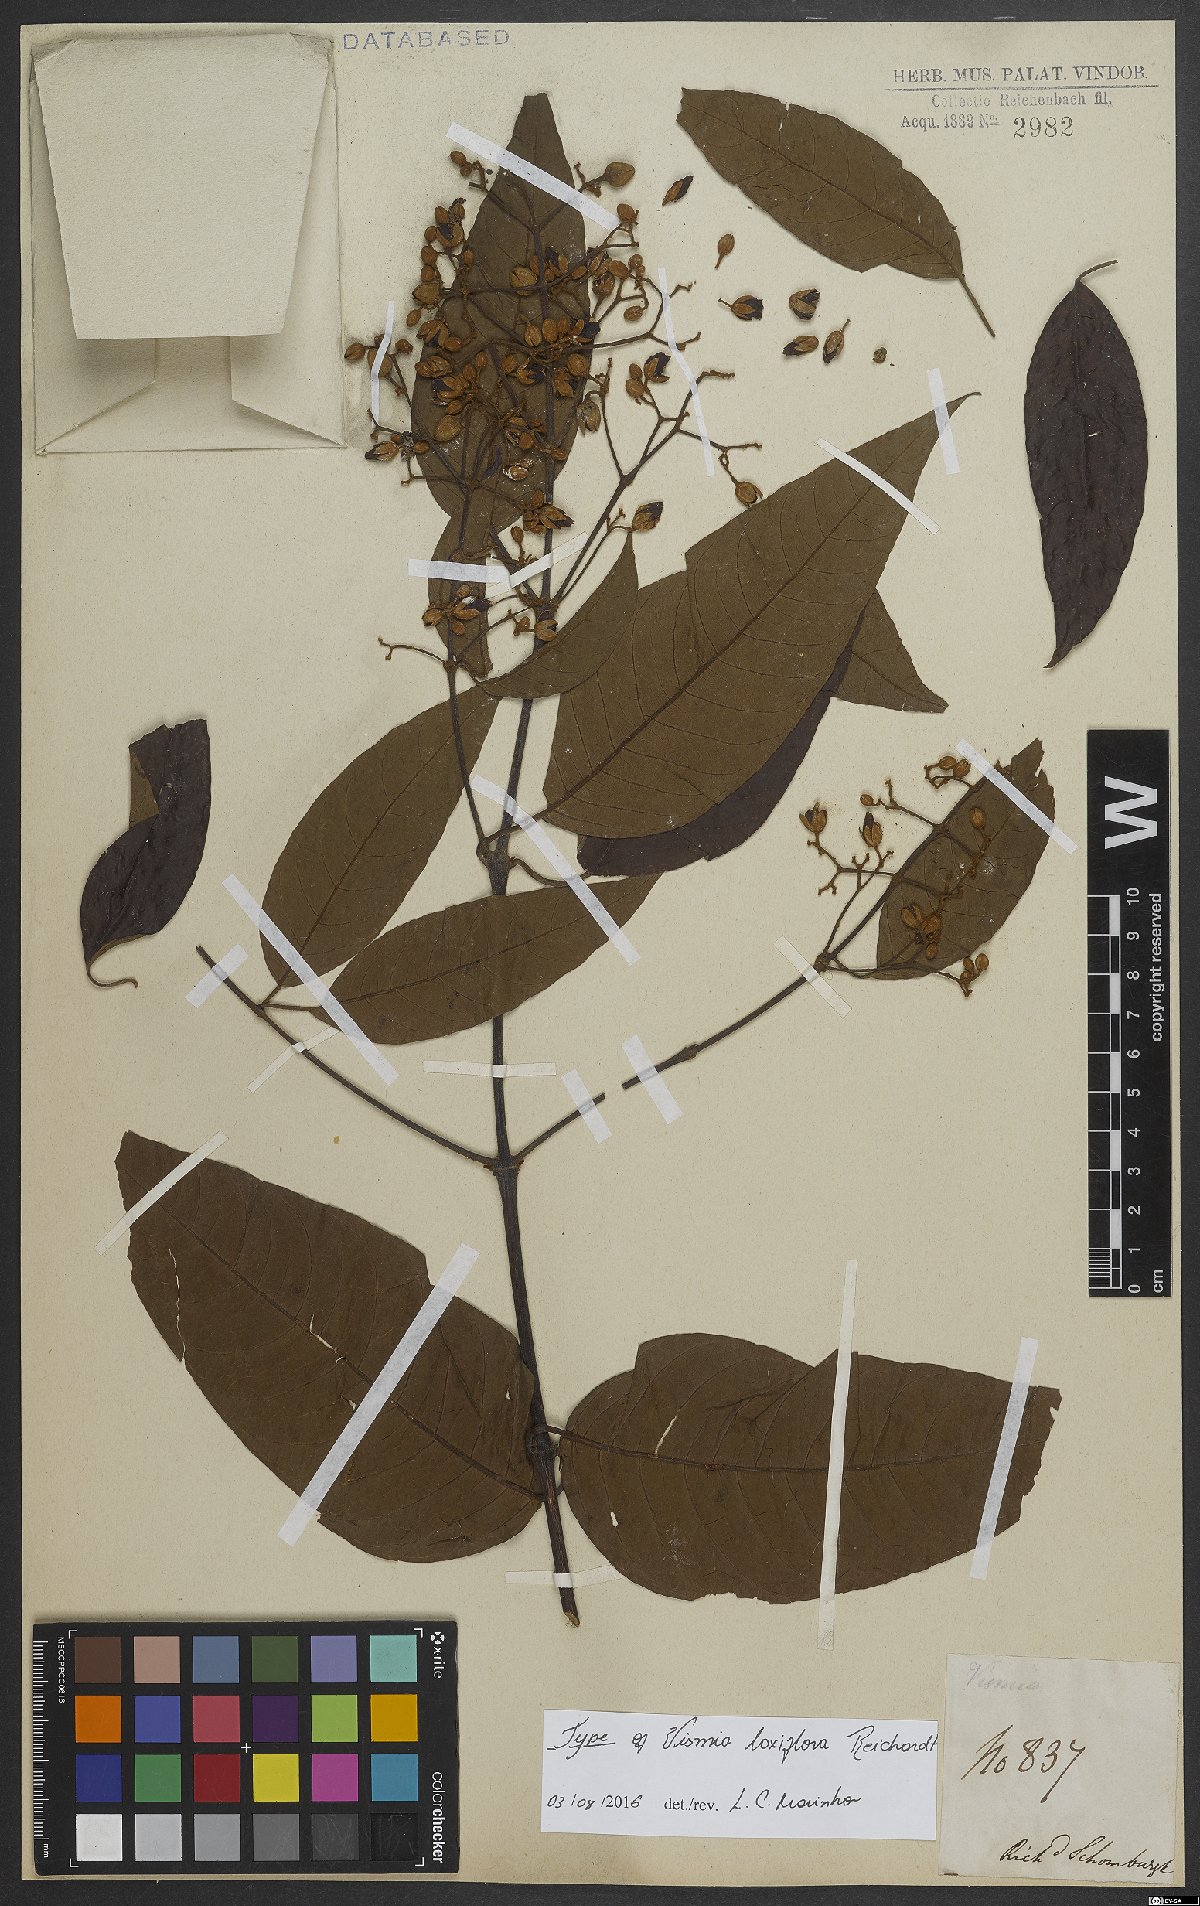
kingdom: Plantae
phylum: Tracheophyta
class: Magnoliopsida
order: Malpighiales
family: Hypericaceae
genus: Vismia
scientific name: Vismia laxiflora
